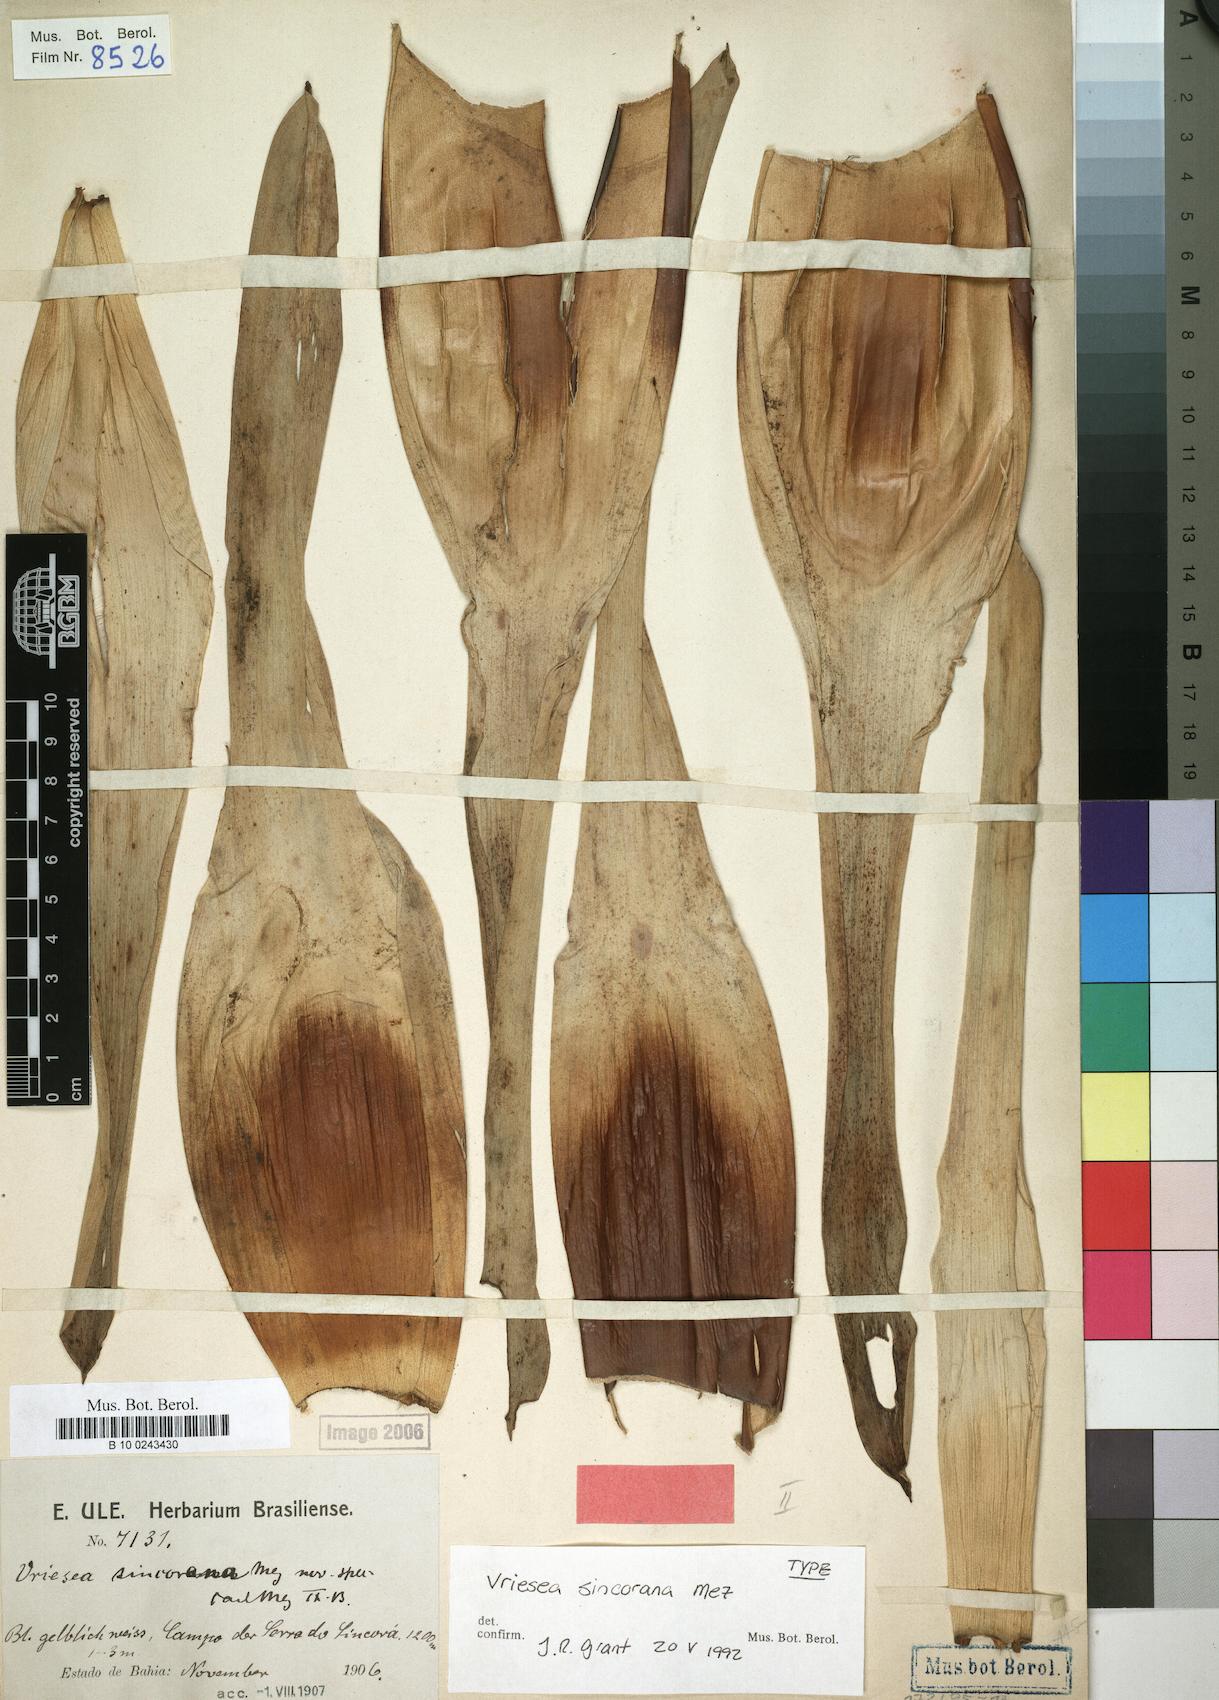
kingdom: Plantae
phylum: Tracheophyta
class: Liliopsida
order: Poales
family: Bromeliaceae
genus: Vriesea
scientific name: Vriesea sincorana
